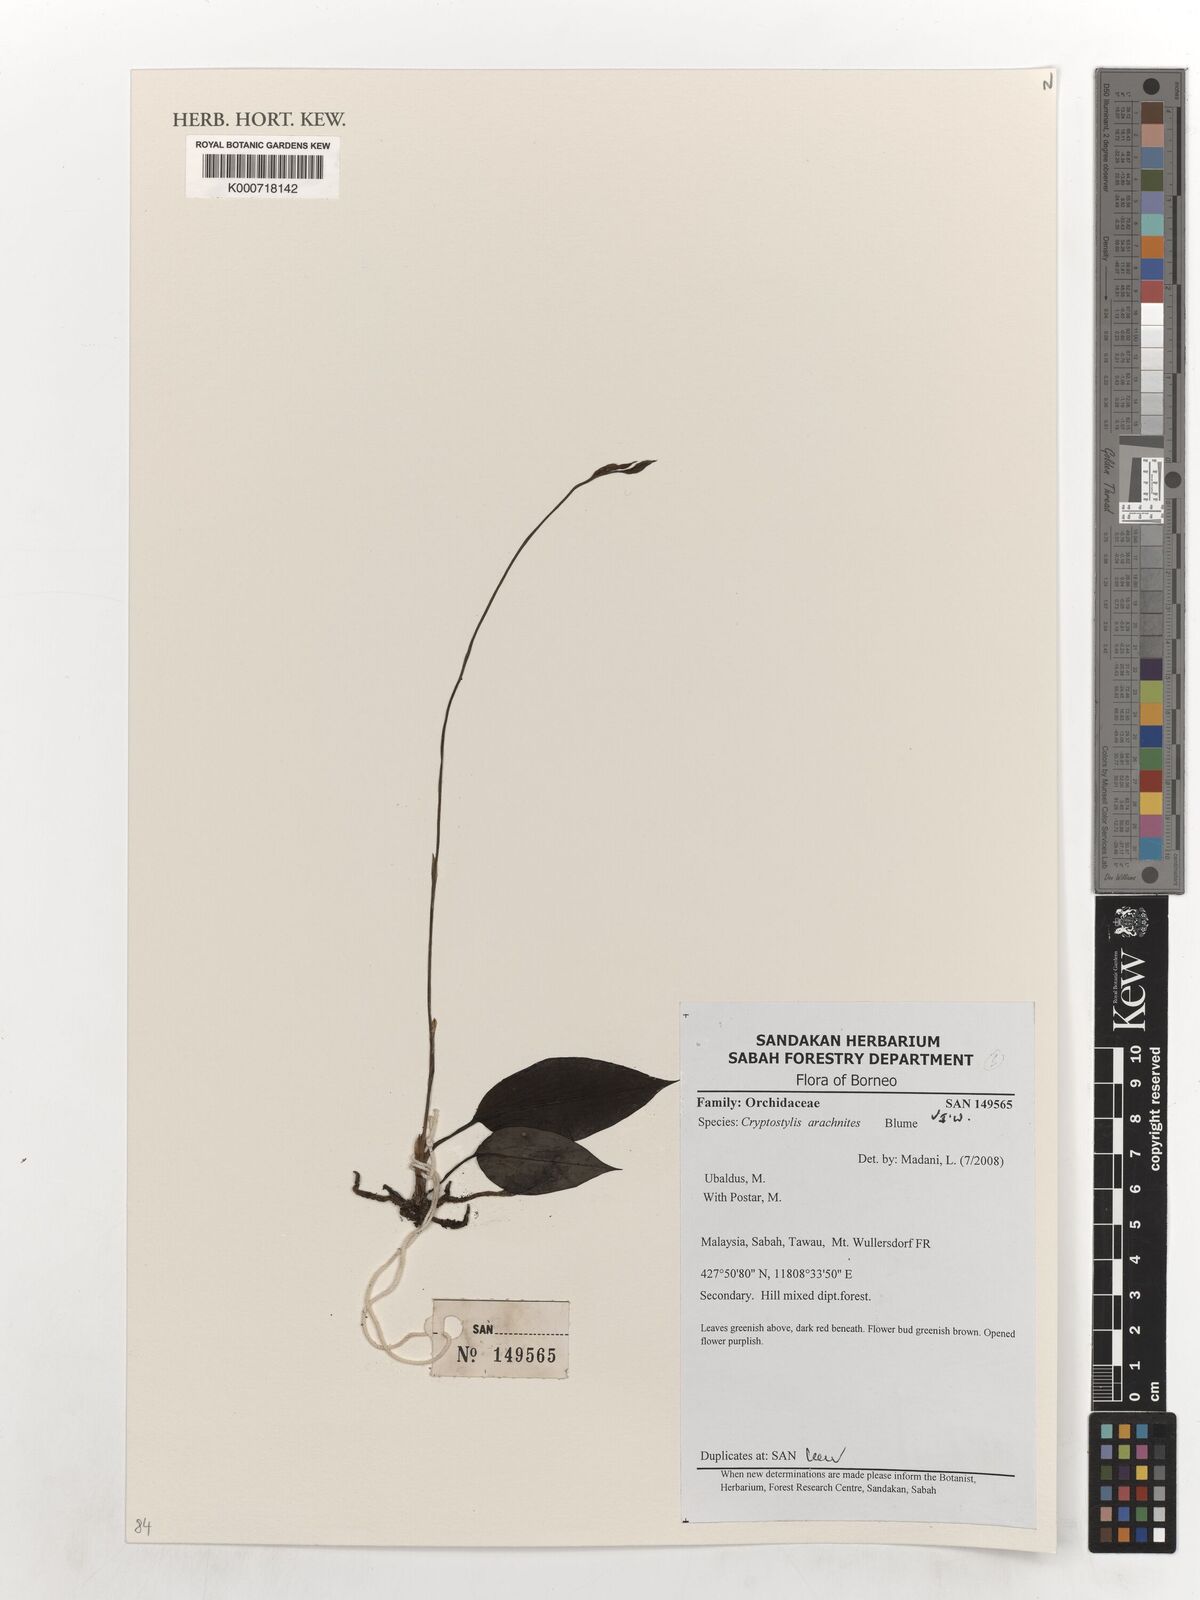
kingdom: Plantae
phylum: Tracheophyta
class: Liliopsida
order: Asparagales
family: Orchidaceae
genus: Cryptostylis
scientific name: Cryptostylis arachnites
